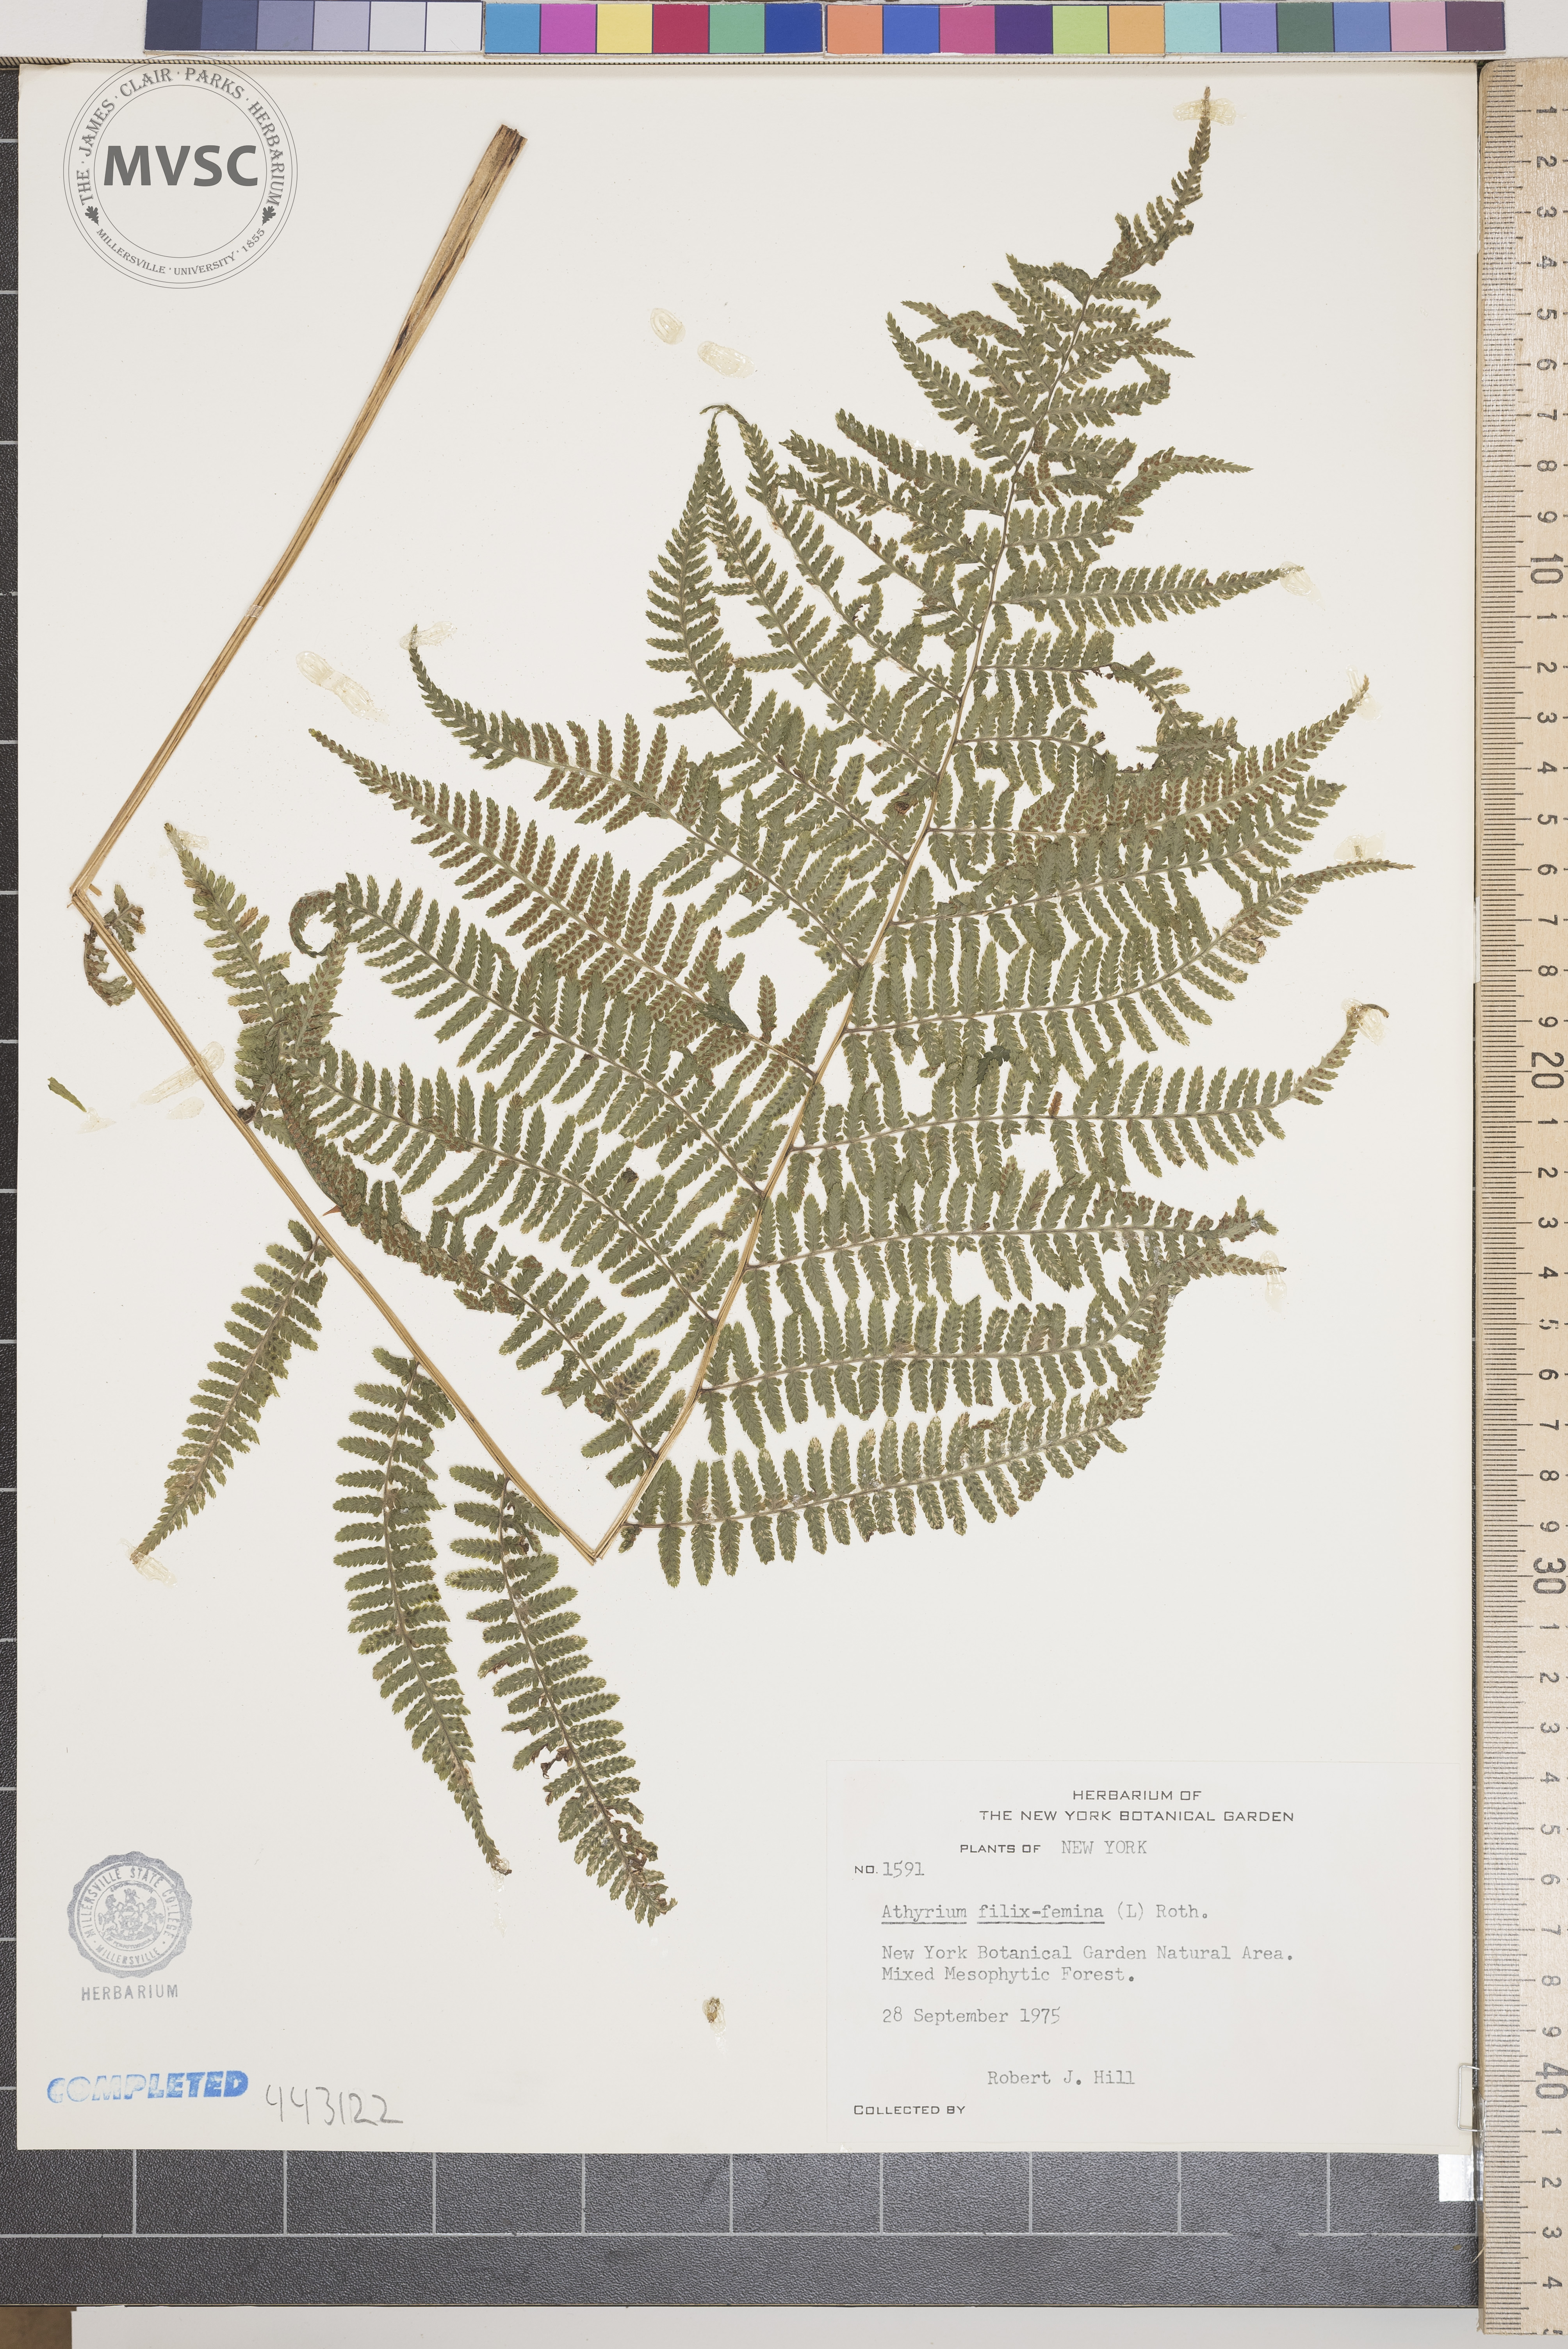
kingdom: Plantae
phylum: Tracheophyta
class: Polypodiopsida
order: Polypodiales
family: Athyriaceae
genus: Athyrium
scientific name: Athyrium filix-femina
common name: Lady fern
